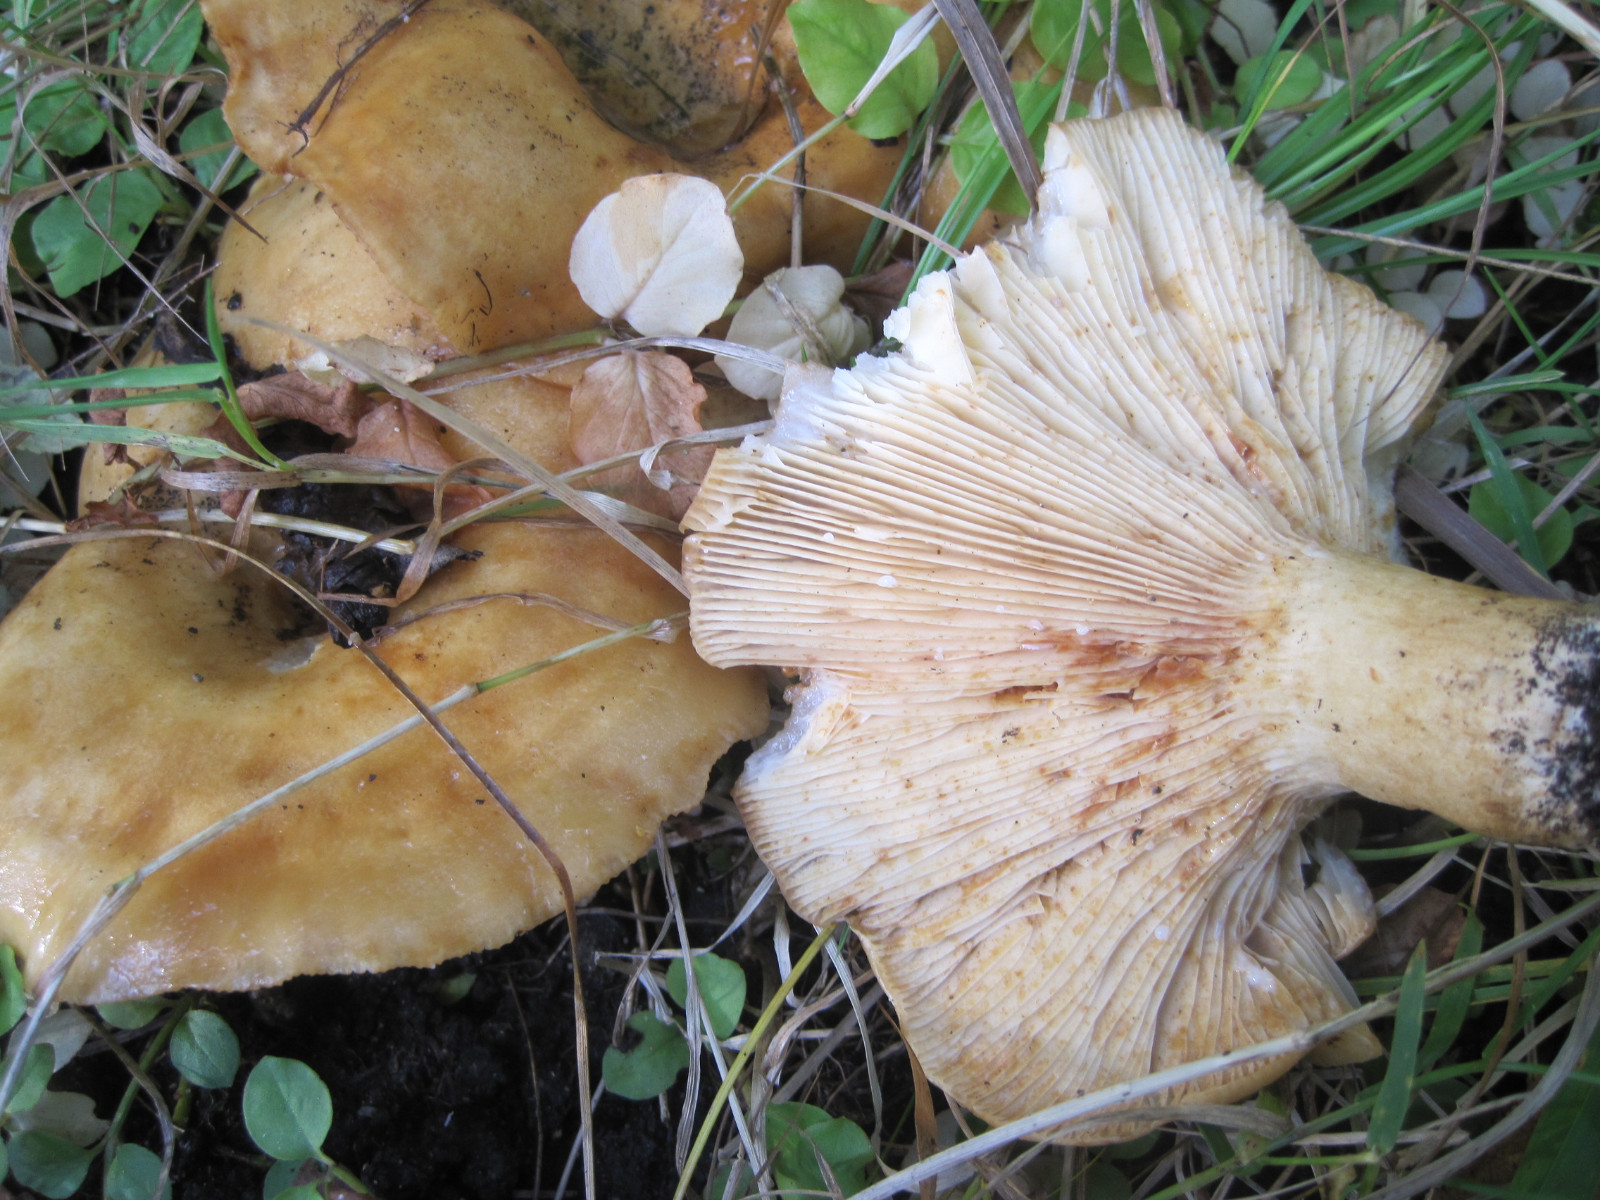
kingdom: Fungi
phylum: Basidiomycota
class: Agaricomycetes
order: Russulales
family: Russulaceae
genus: Lactarius
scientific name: Lactarius evosmus
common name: bæltet mælkehat
